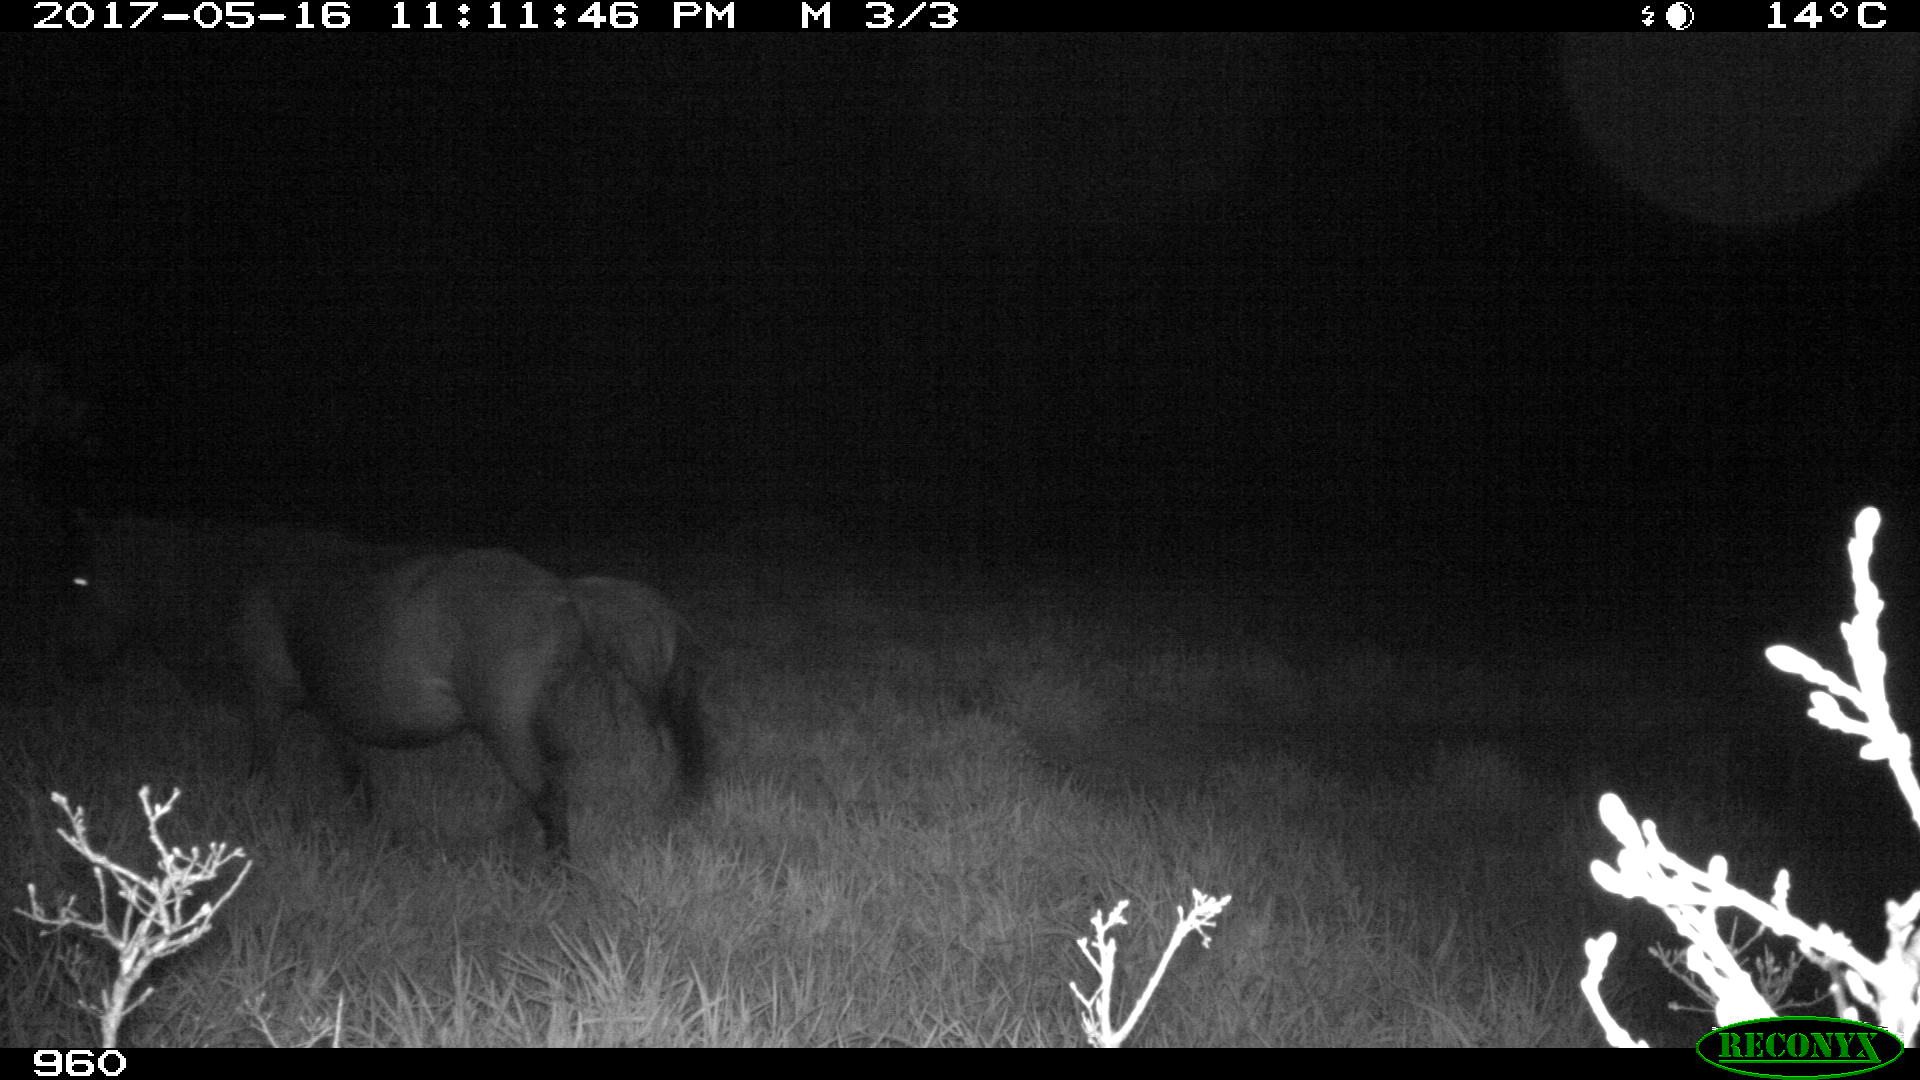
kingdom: Animalia
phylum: Chordata
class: Mammalia
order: Perissodactyla
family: Equidae
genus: Equus
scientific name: Equus caballus
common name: Horse
